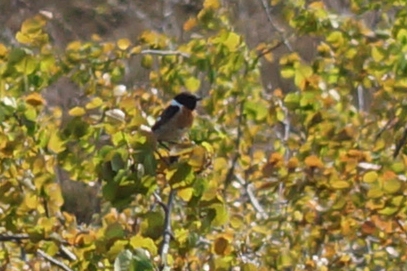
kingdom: Animalia
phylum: Chordata
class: Aves
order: Passeriformes
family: Muscicapidae
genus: Saxicola
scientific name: Saxicola rubicola
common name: Sortstrubet bynkefugl
